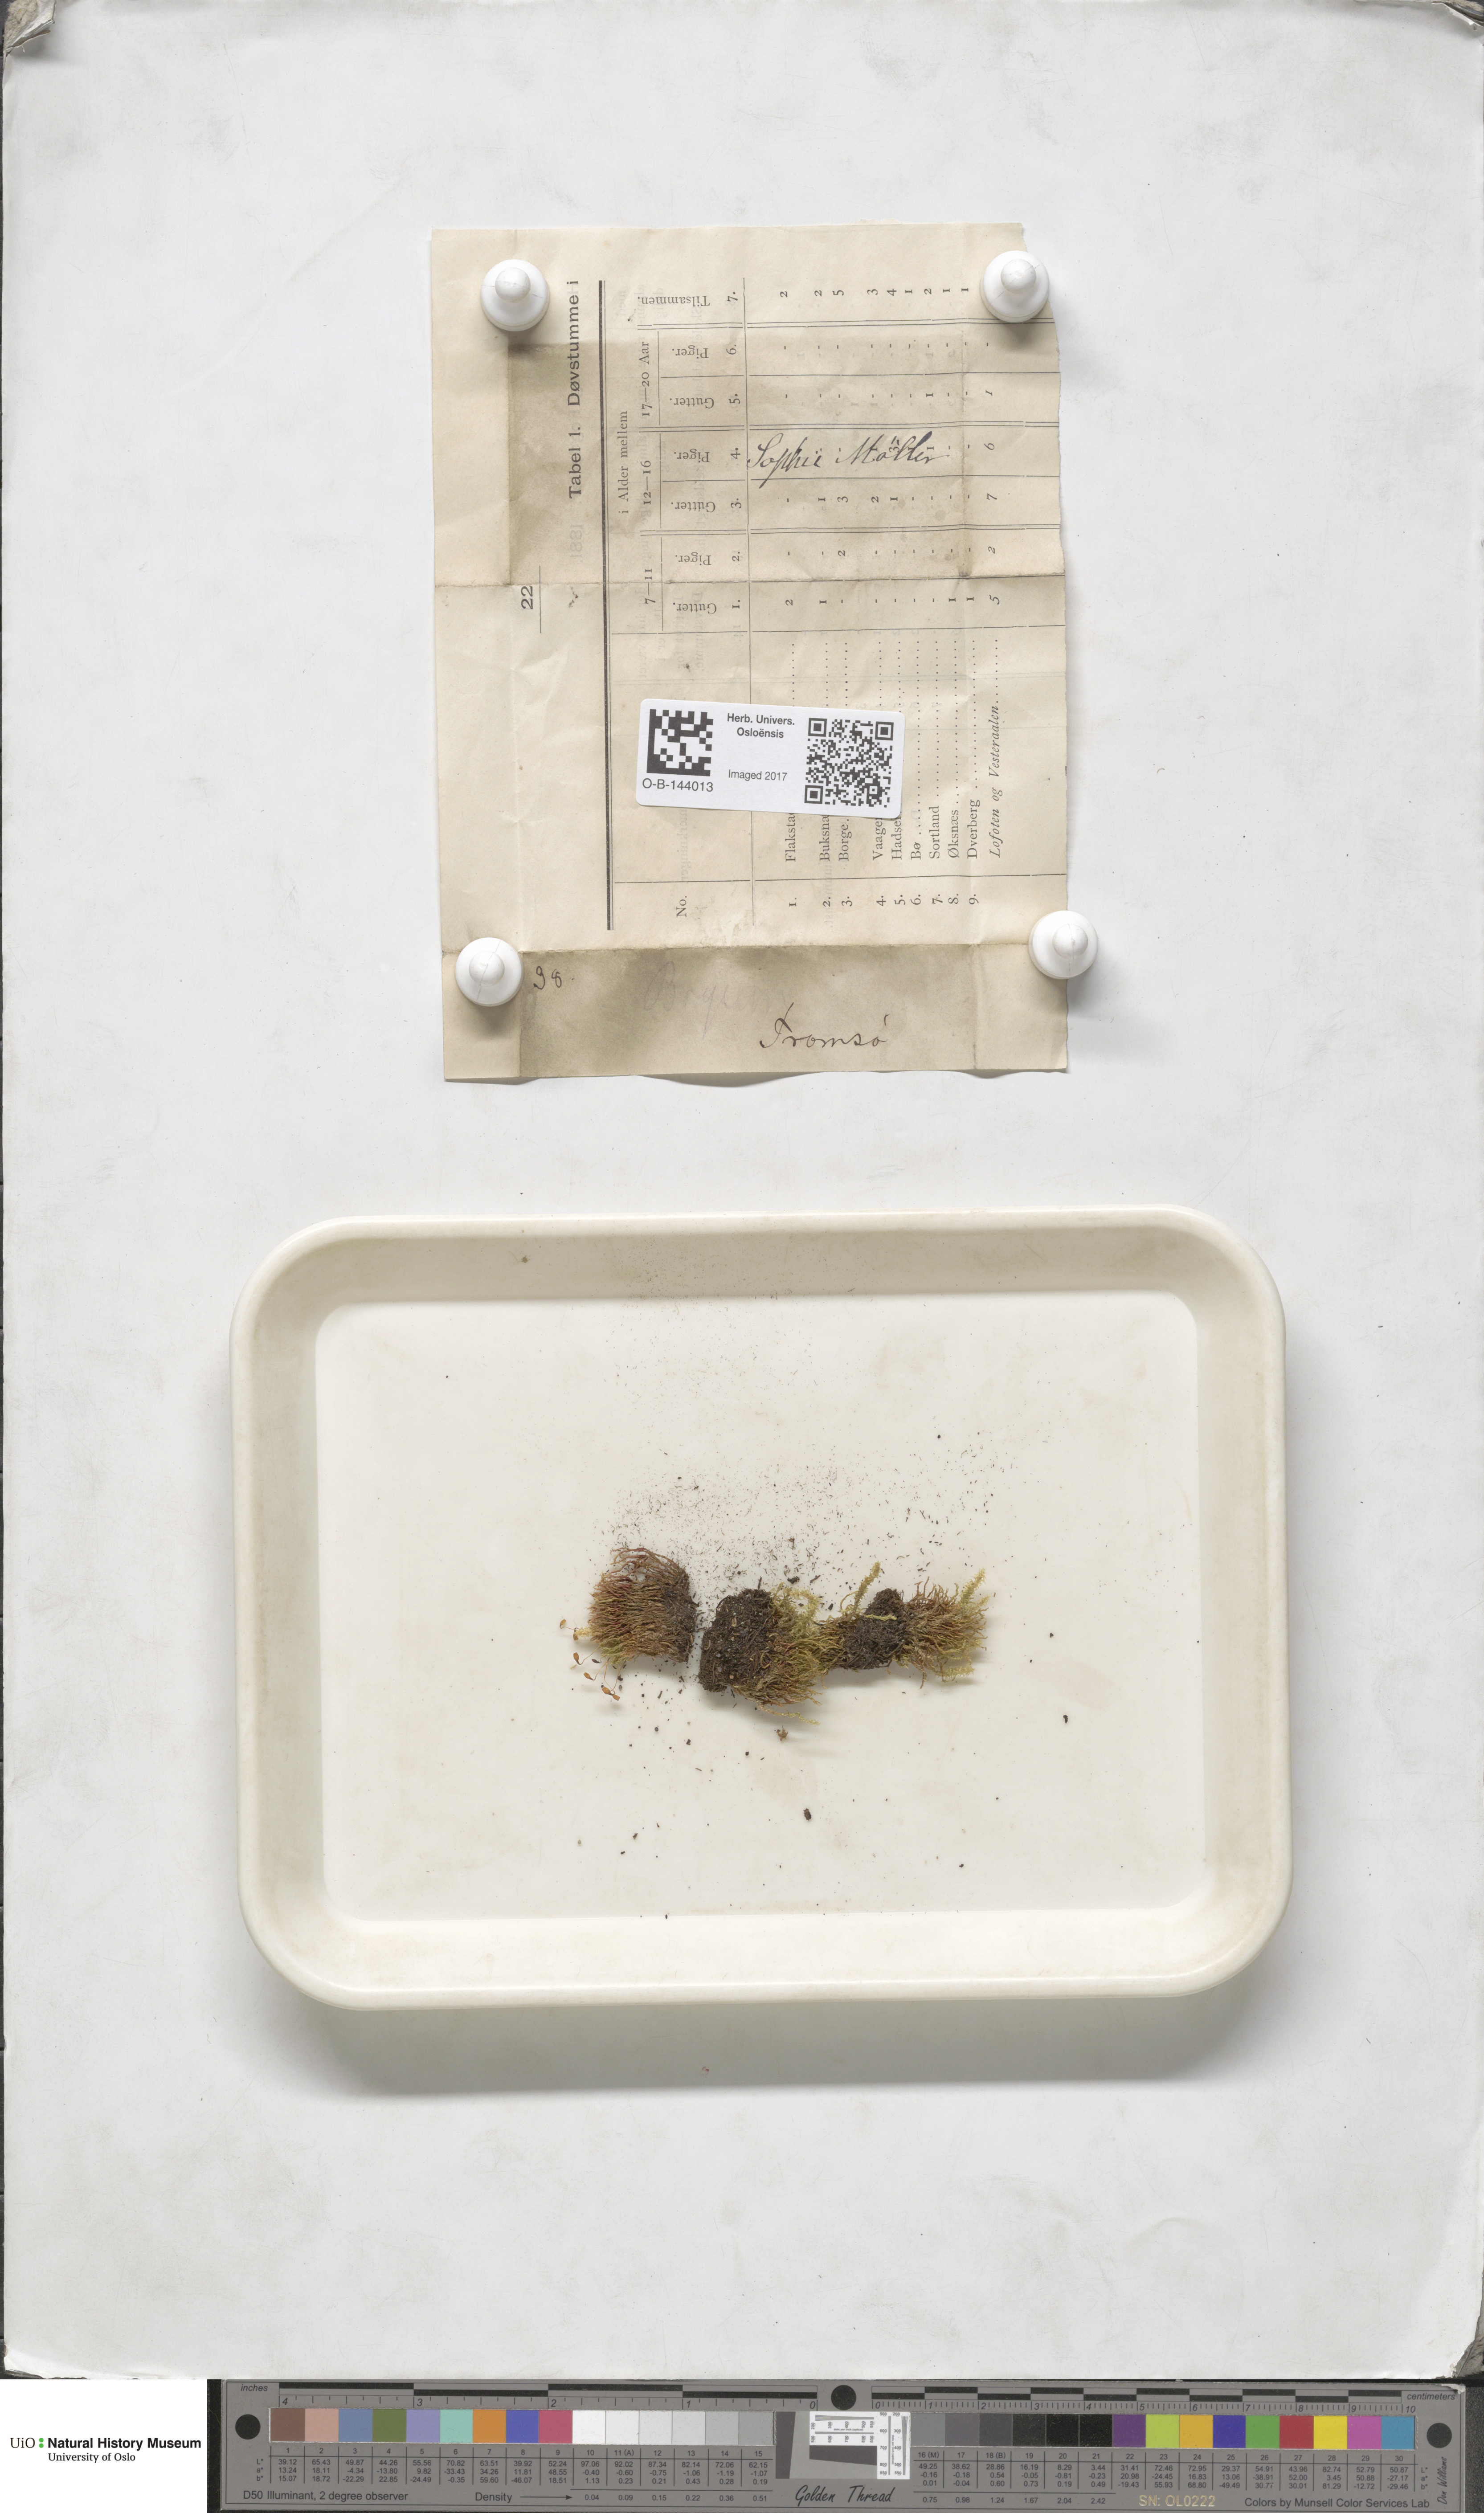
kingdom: Plantae
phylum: Bryophyta
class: Bryopsida
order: Bryales
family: Bryaceae
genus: Bryum
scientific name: Bryum
